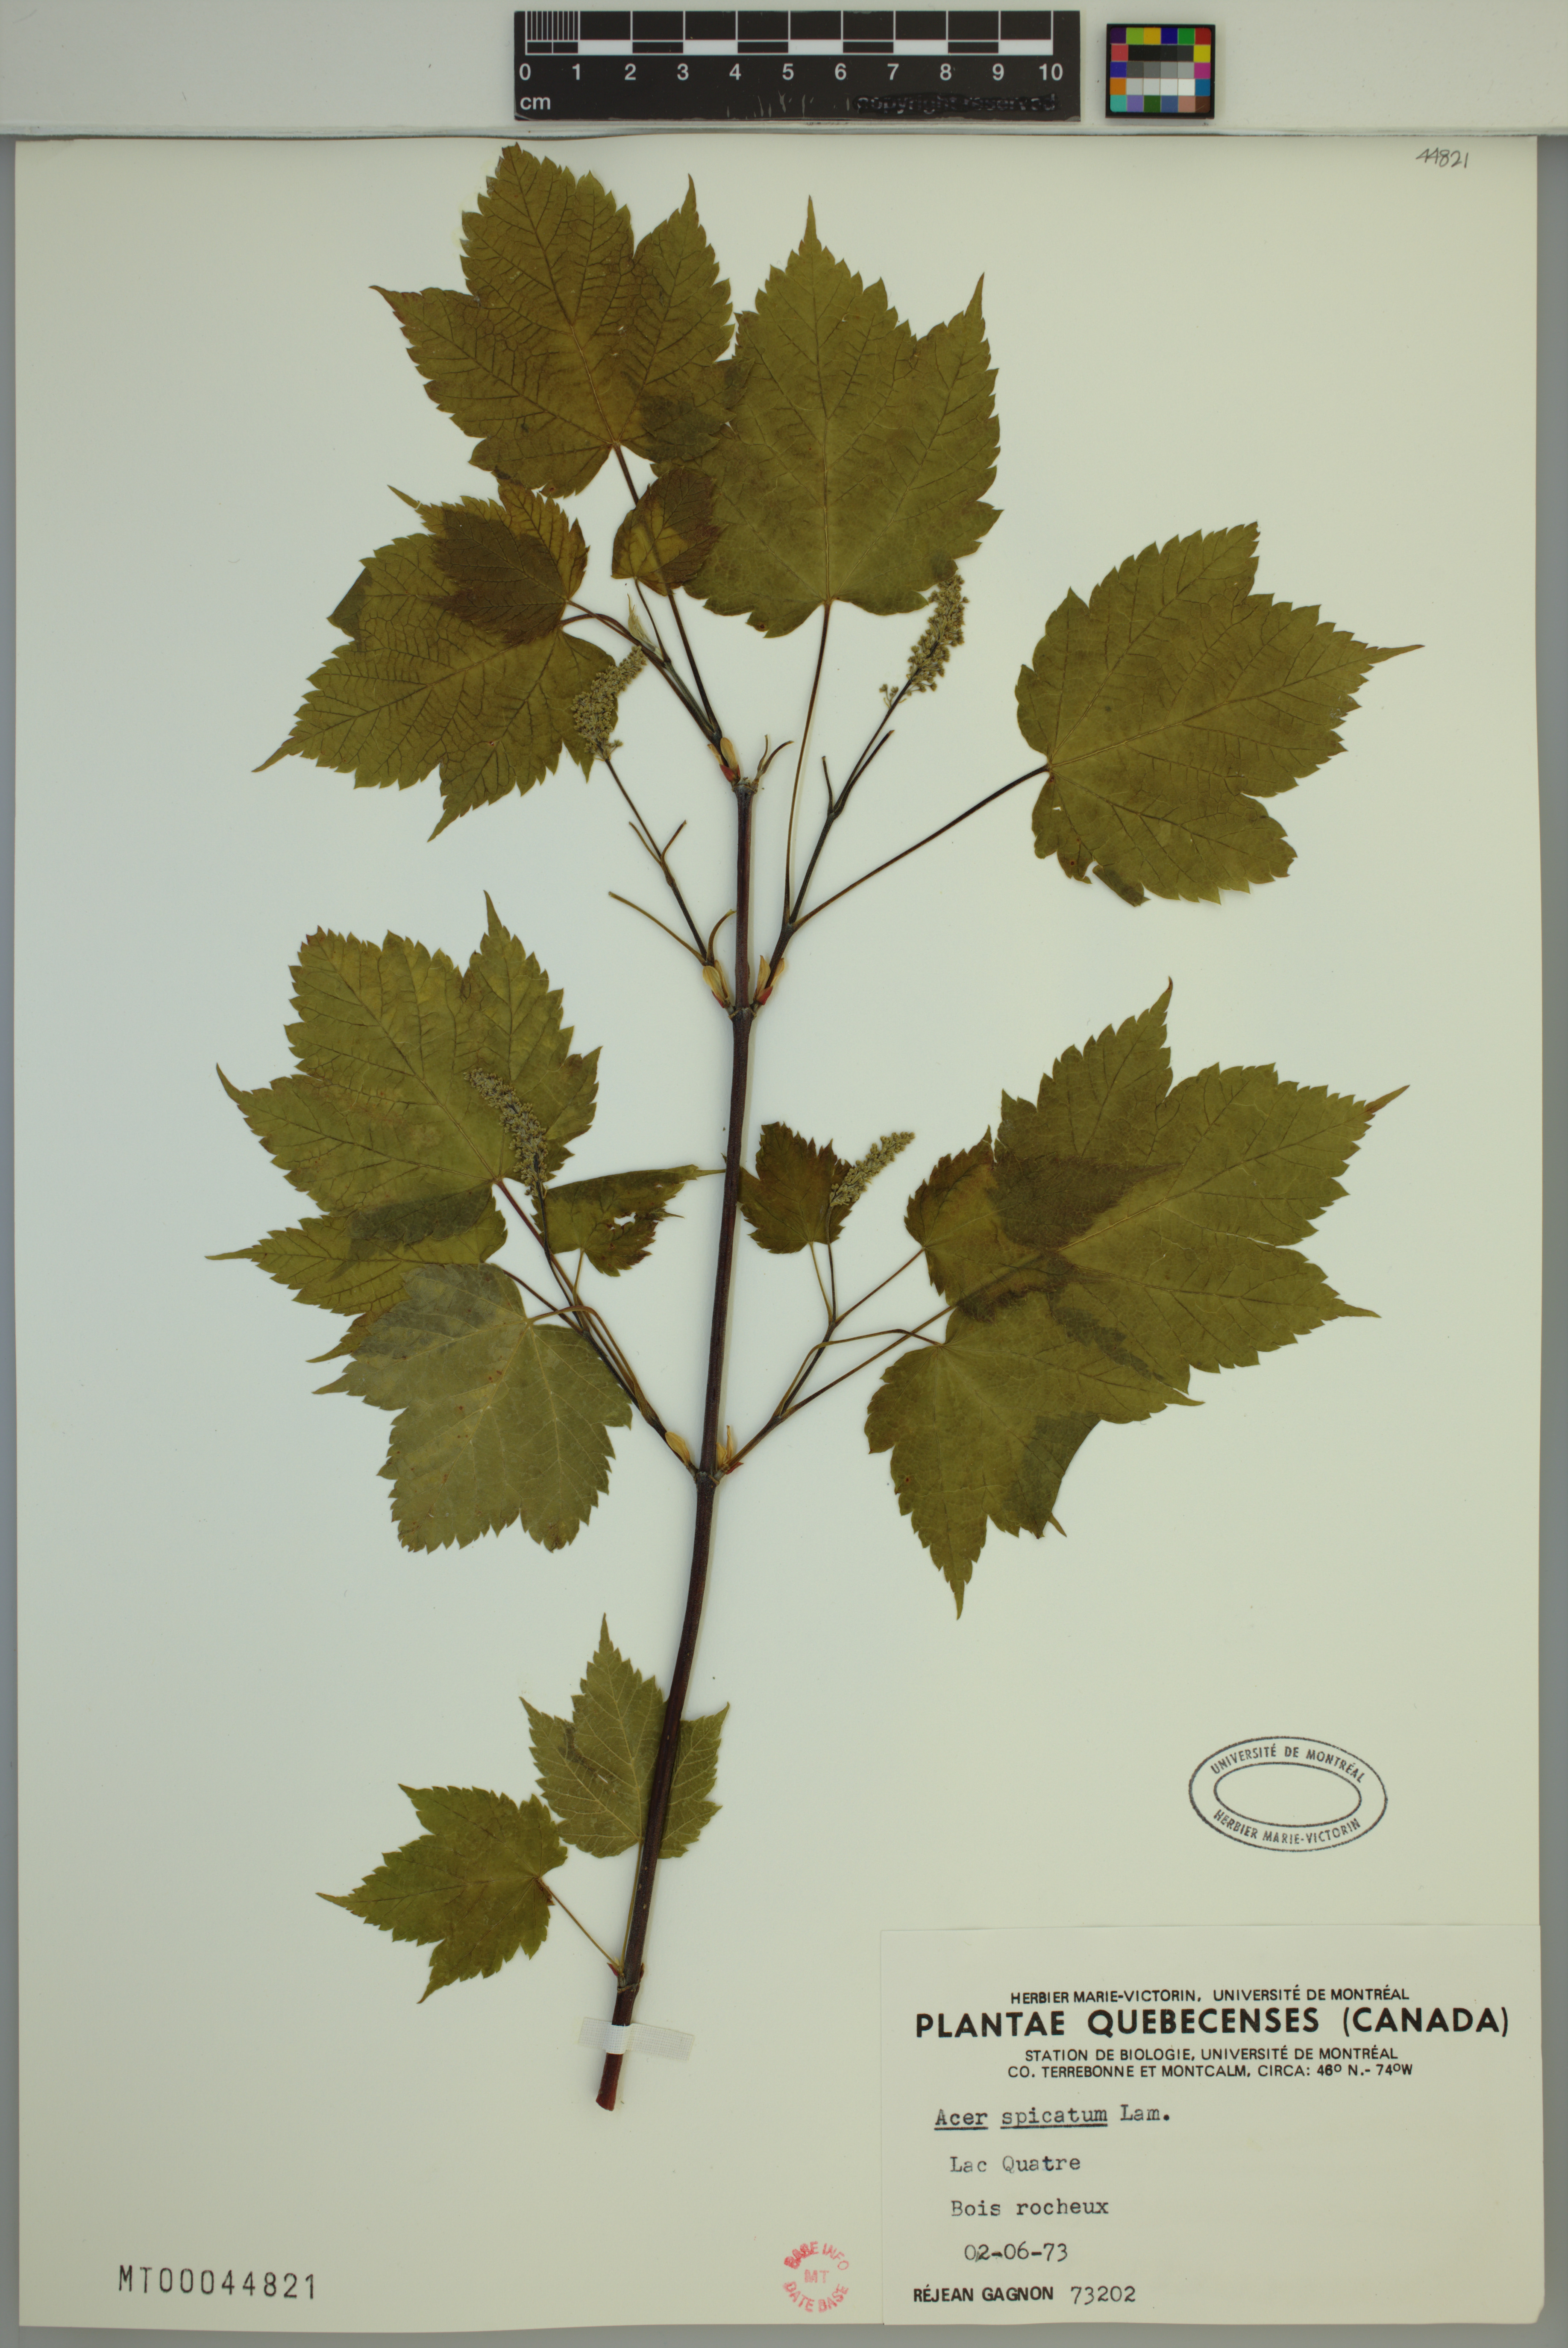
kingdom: Plantae
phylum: Tracheophyta
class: Magnoliopsida
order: Sapindales
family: Sapindaceae
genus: Acer
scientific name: Acer spicatum
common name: Mountain maple
